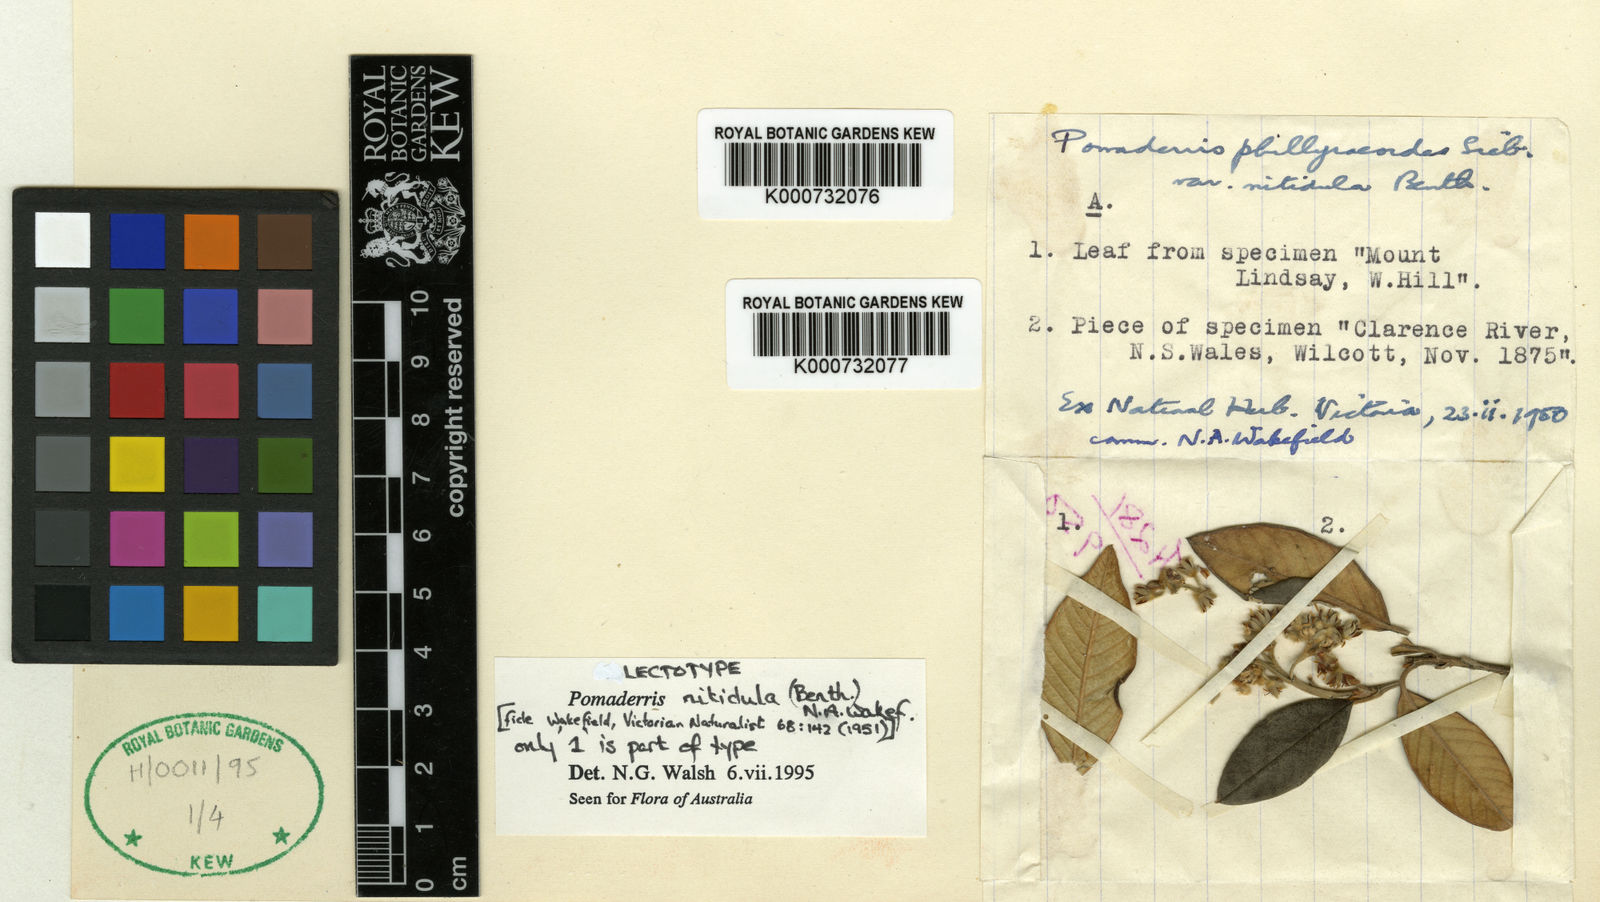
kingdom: Plantae
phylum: Tracheophyta
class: Magnoliopsida
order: Rosales
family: Rhamnaceae
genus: Pomaderris
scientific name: Pomaderris nitidula
